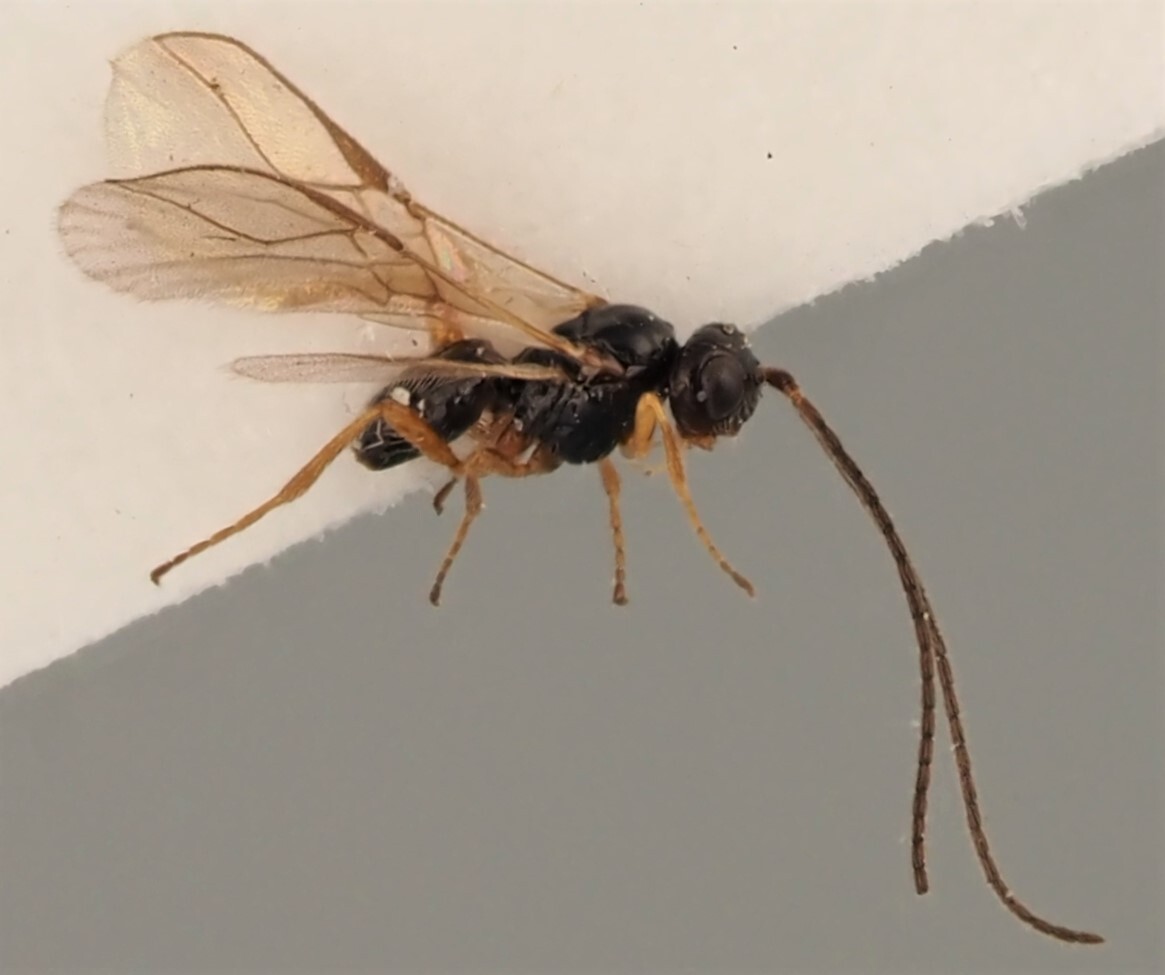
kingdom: Animalia
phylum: Arthropoda
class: Insecta
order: Hymenoptera
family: Braconidae
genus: Phaedrotoma
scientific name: Phaedrotoma exigua
